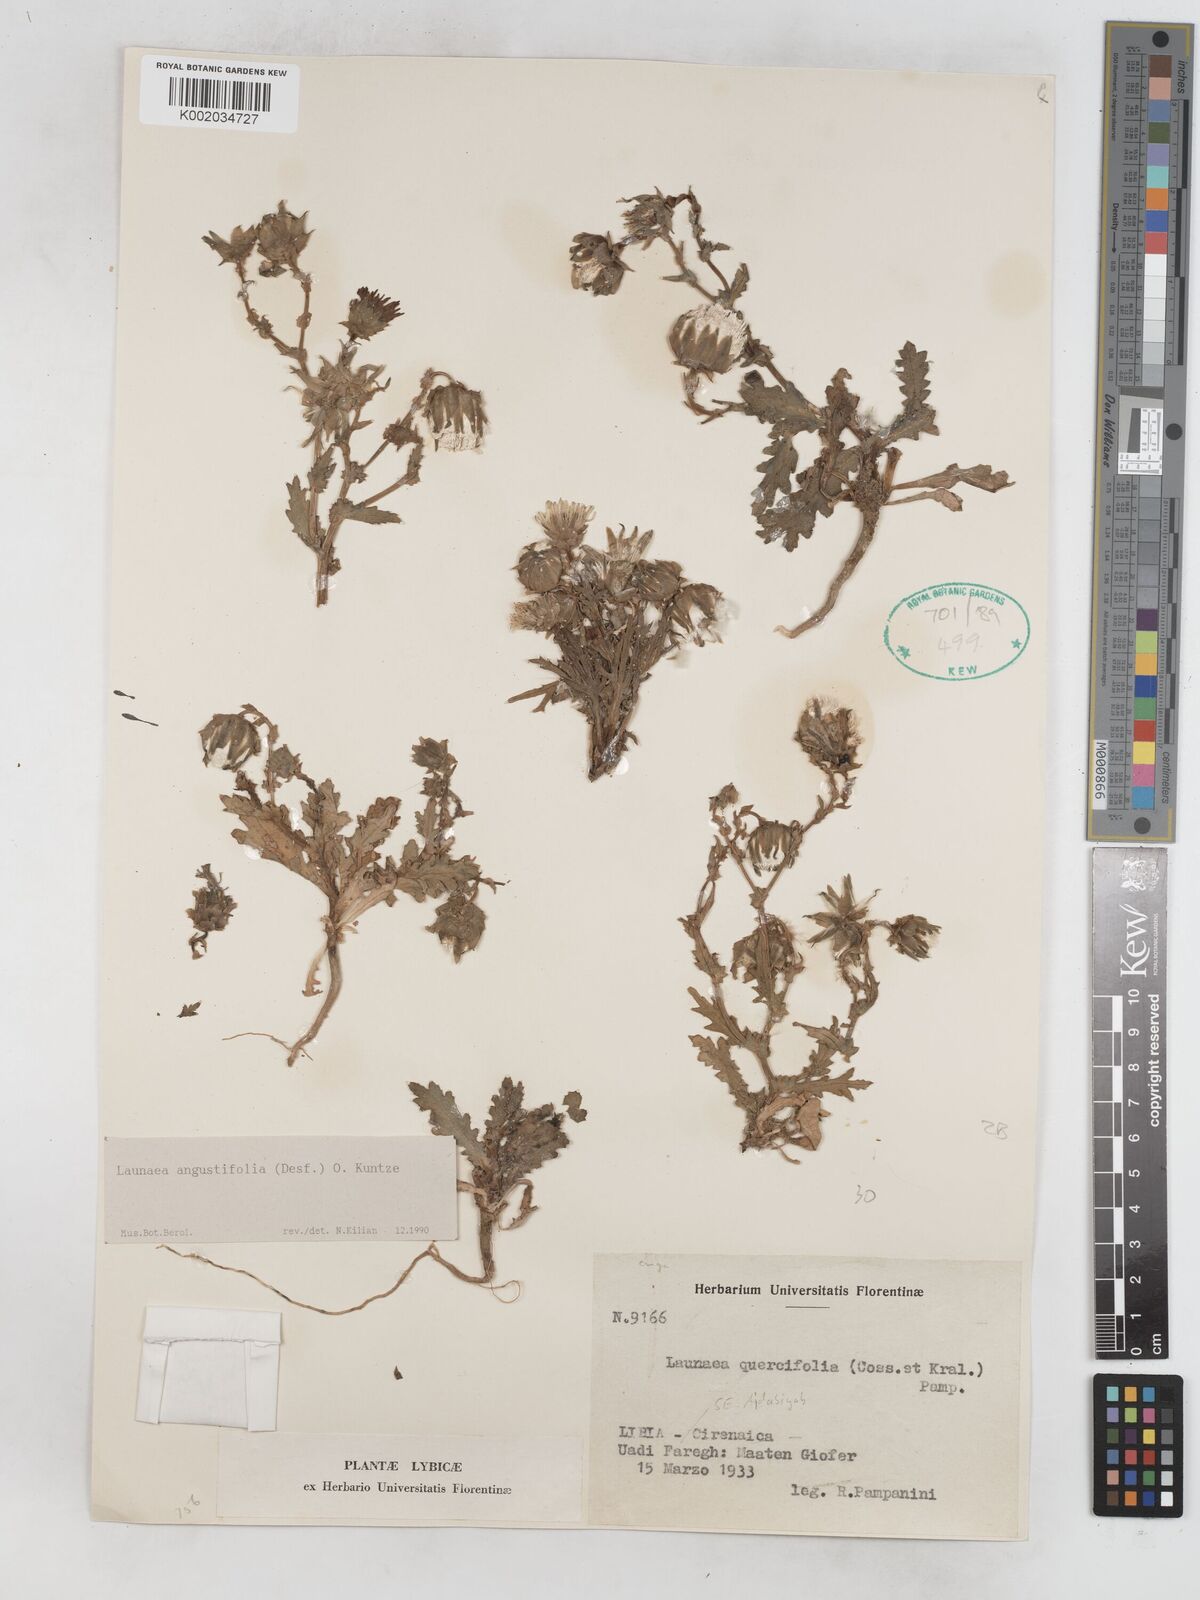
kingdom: Plantae
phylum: Tracheophyta
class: Magnoliopsida
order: Asterales
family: Asteraceae
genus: Launaea
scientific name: Launaea angustifolia
